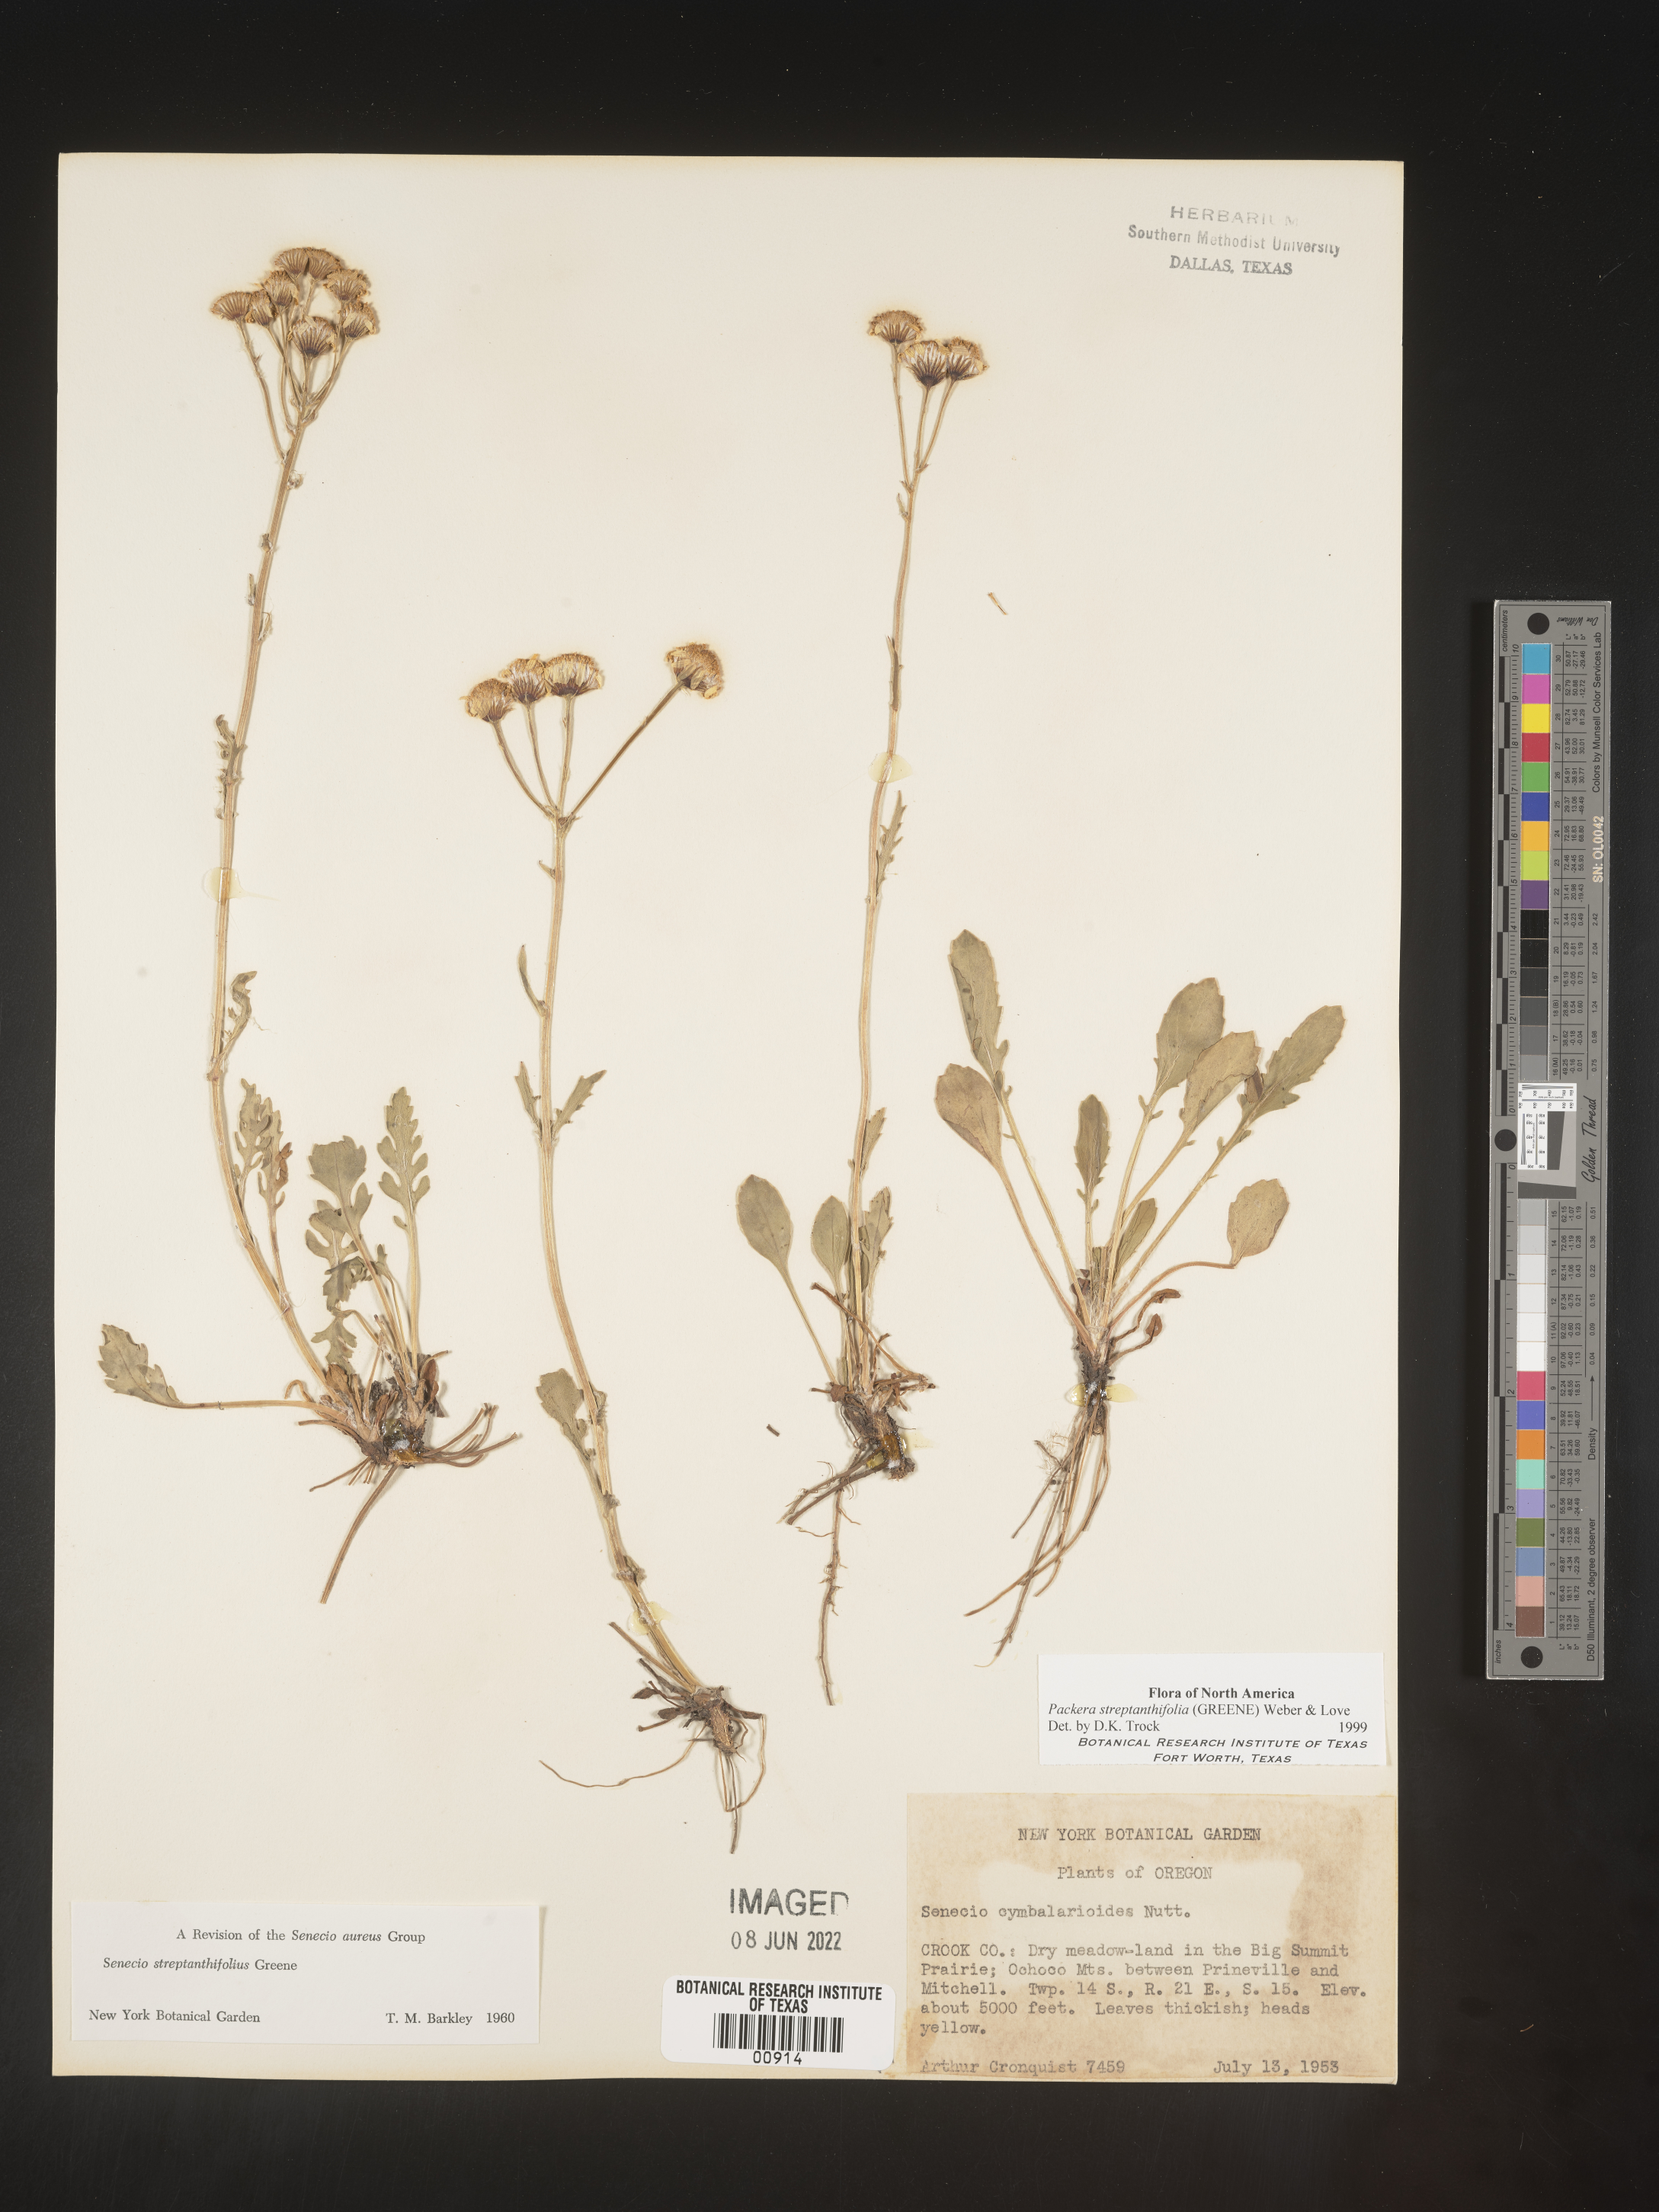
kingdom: Plantae
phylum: Tracheophyta
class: Magnoliopsida
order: Asterales
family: Asteraceae
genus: Packera
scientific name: Packera streptanthifolia
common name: Rocky mountain butterweed
